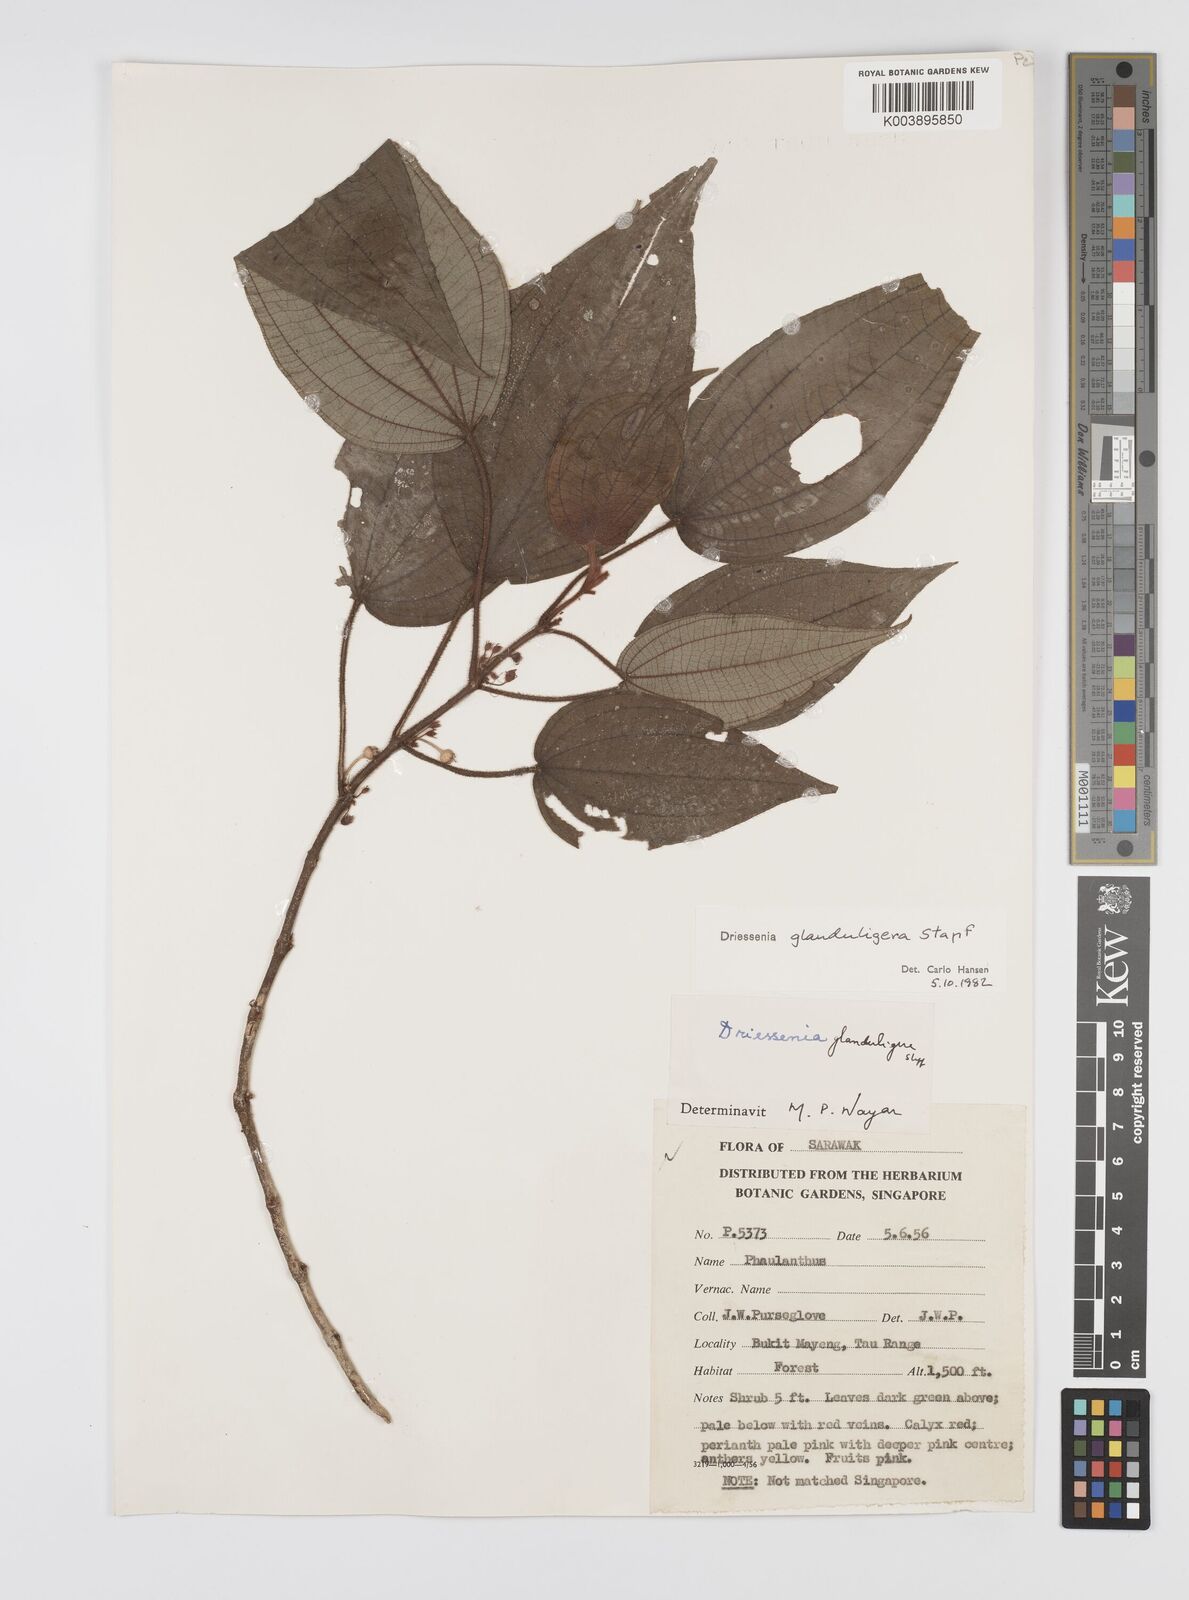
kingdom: Plantae
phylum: Tracheophyta
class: Magnoliopsida
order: Myrtales
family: Melastomataceae
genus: Driessenia
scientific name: Driessenia glanduligera
